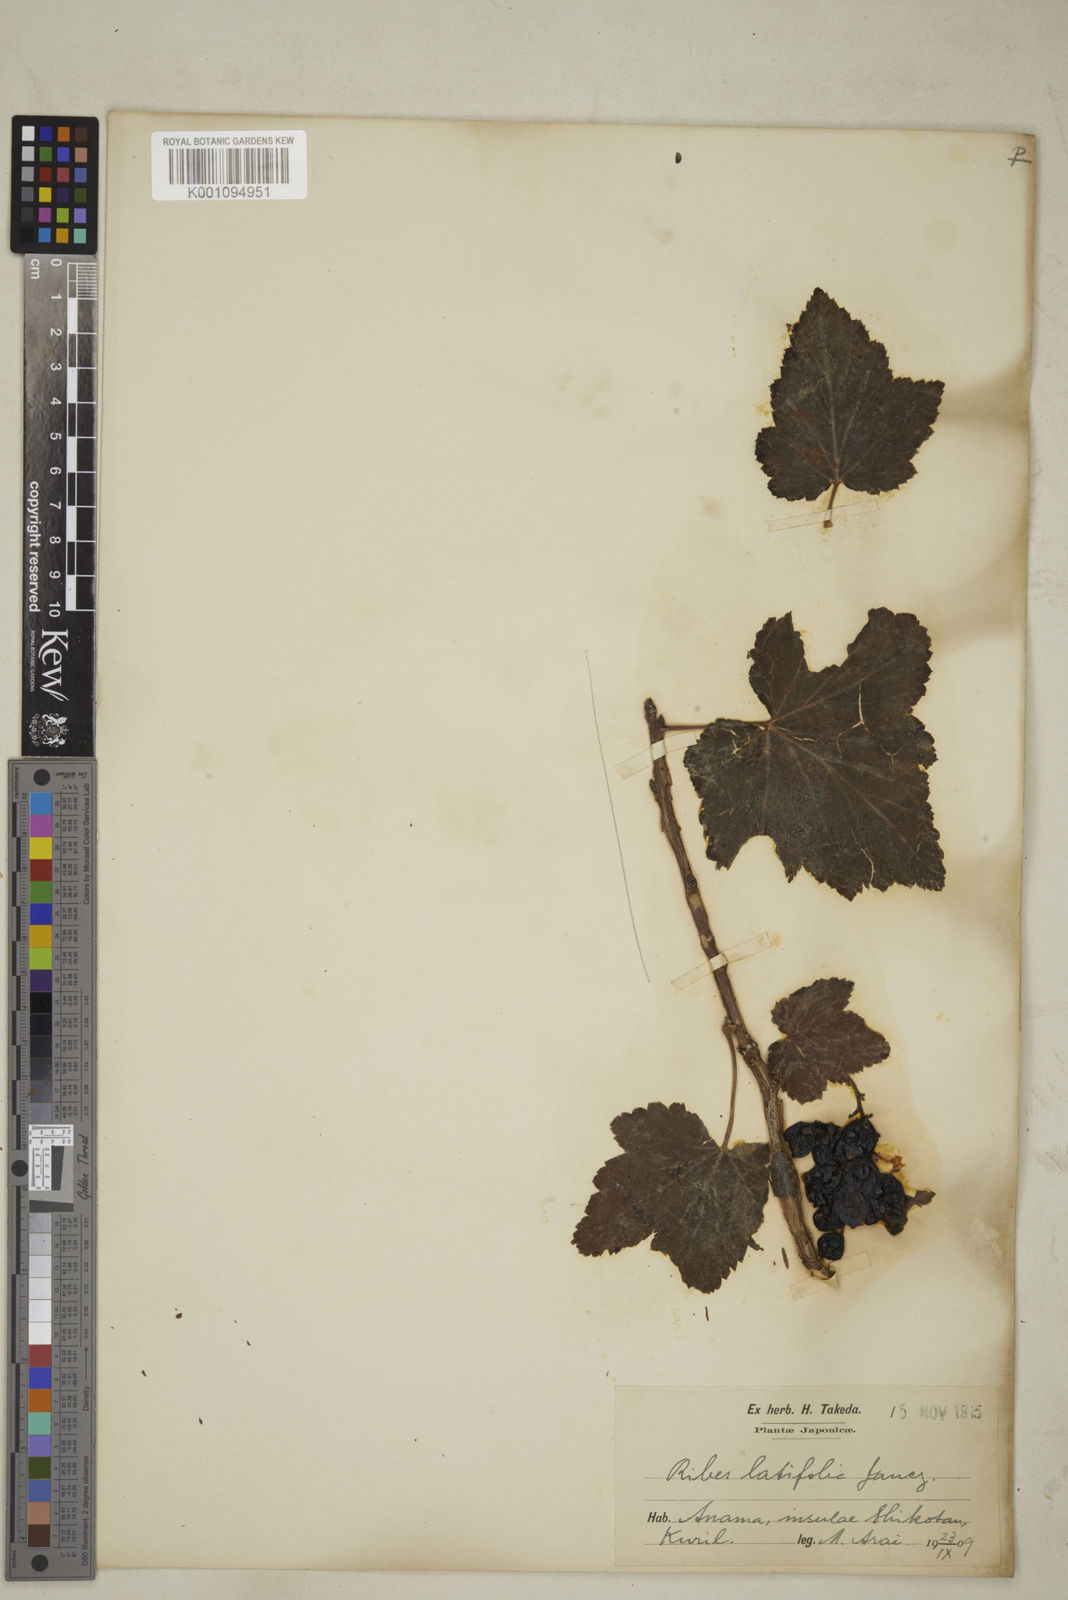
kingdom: Plantae
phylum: Tracheophyta
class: Magnoliopsida
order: Saxifragales
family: Grossulariaceae
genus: Ribes
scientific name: Ribes latifolium
